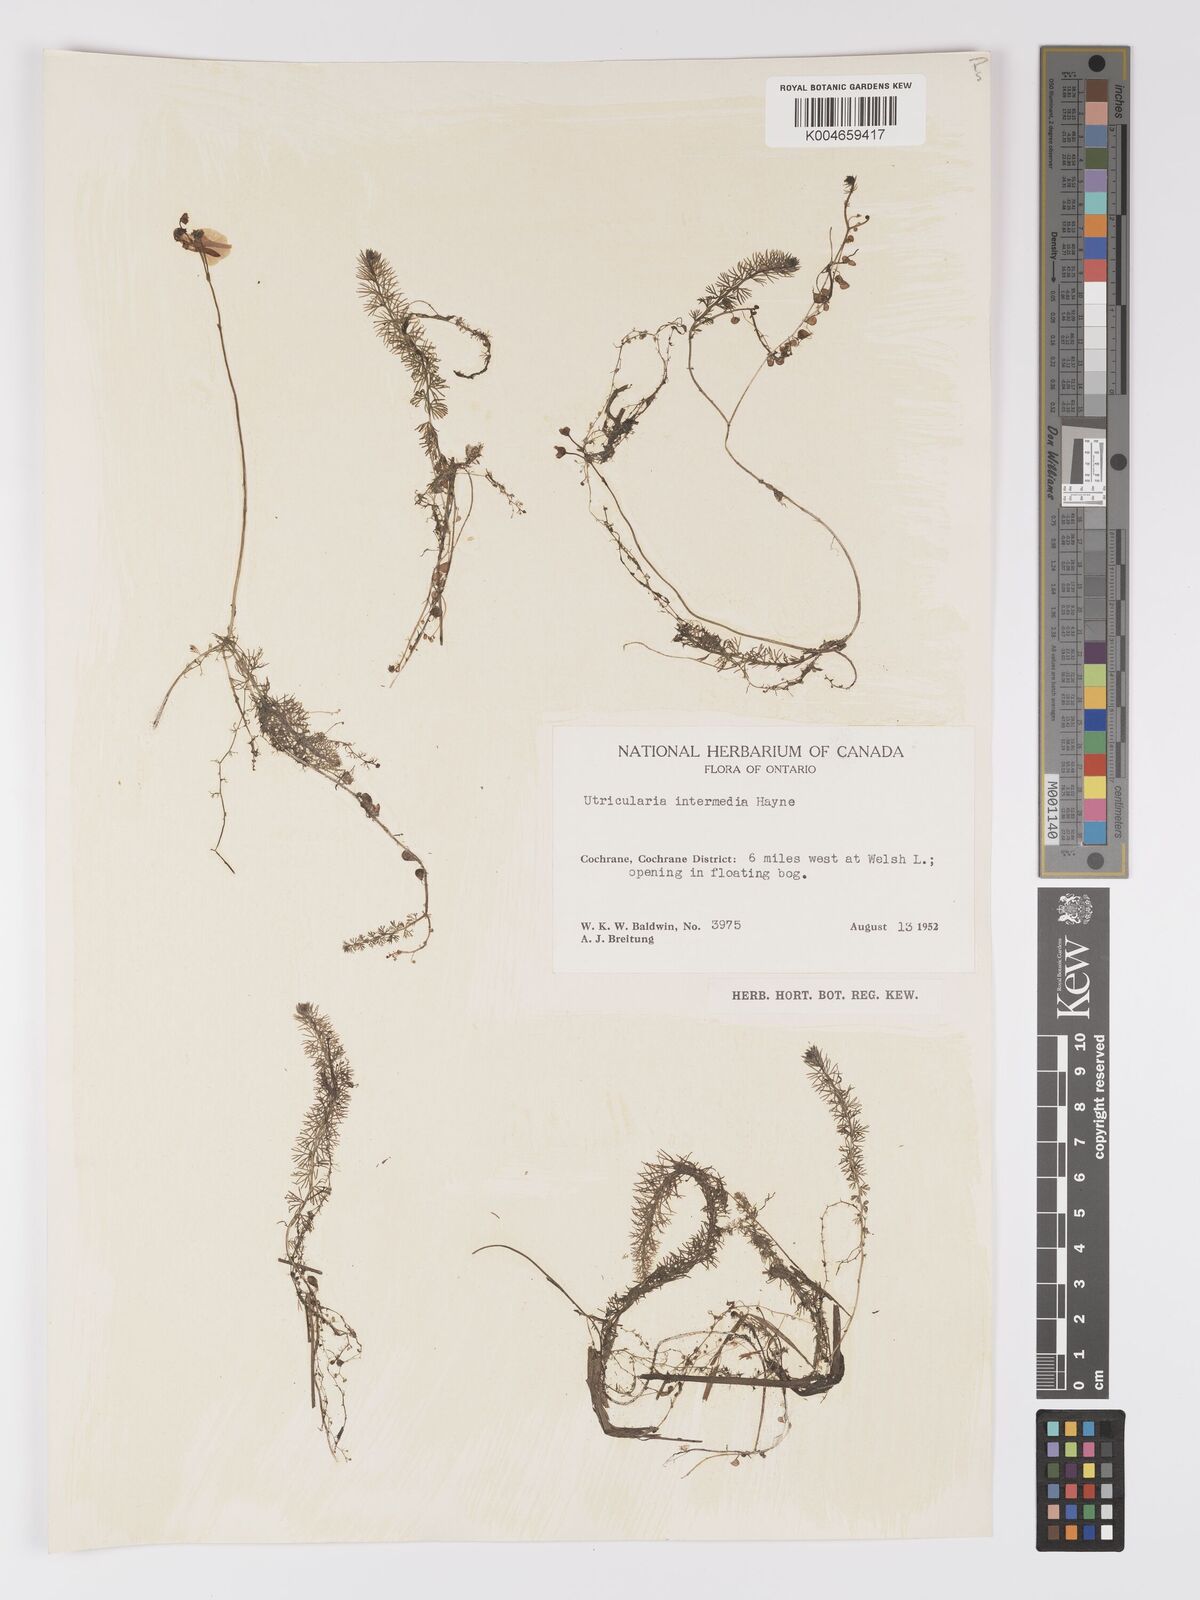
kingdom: Plantae
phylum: Tracheophyta
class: Magnoliopsida
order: Lamiales
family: Lentibulariaceae
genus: Utricularia
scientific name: Utricularia intermedia
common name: Intermediate bladderwort
